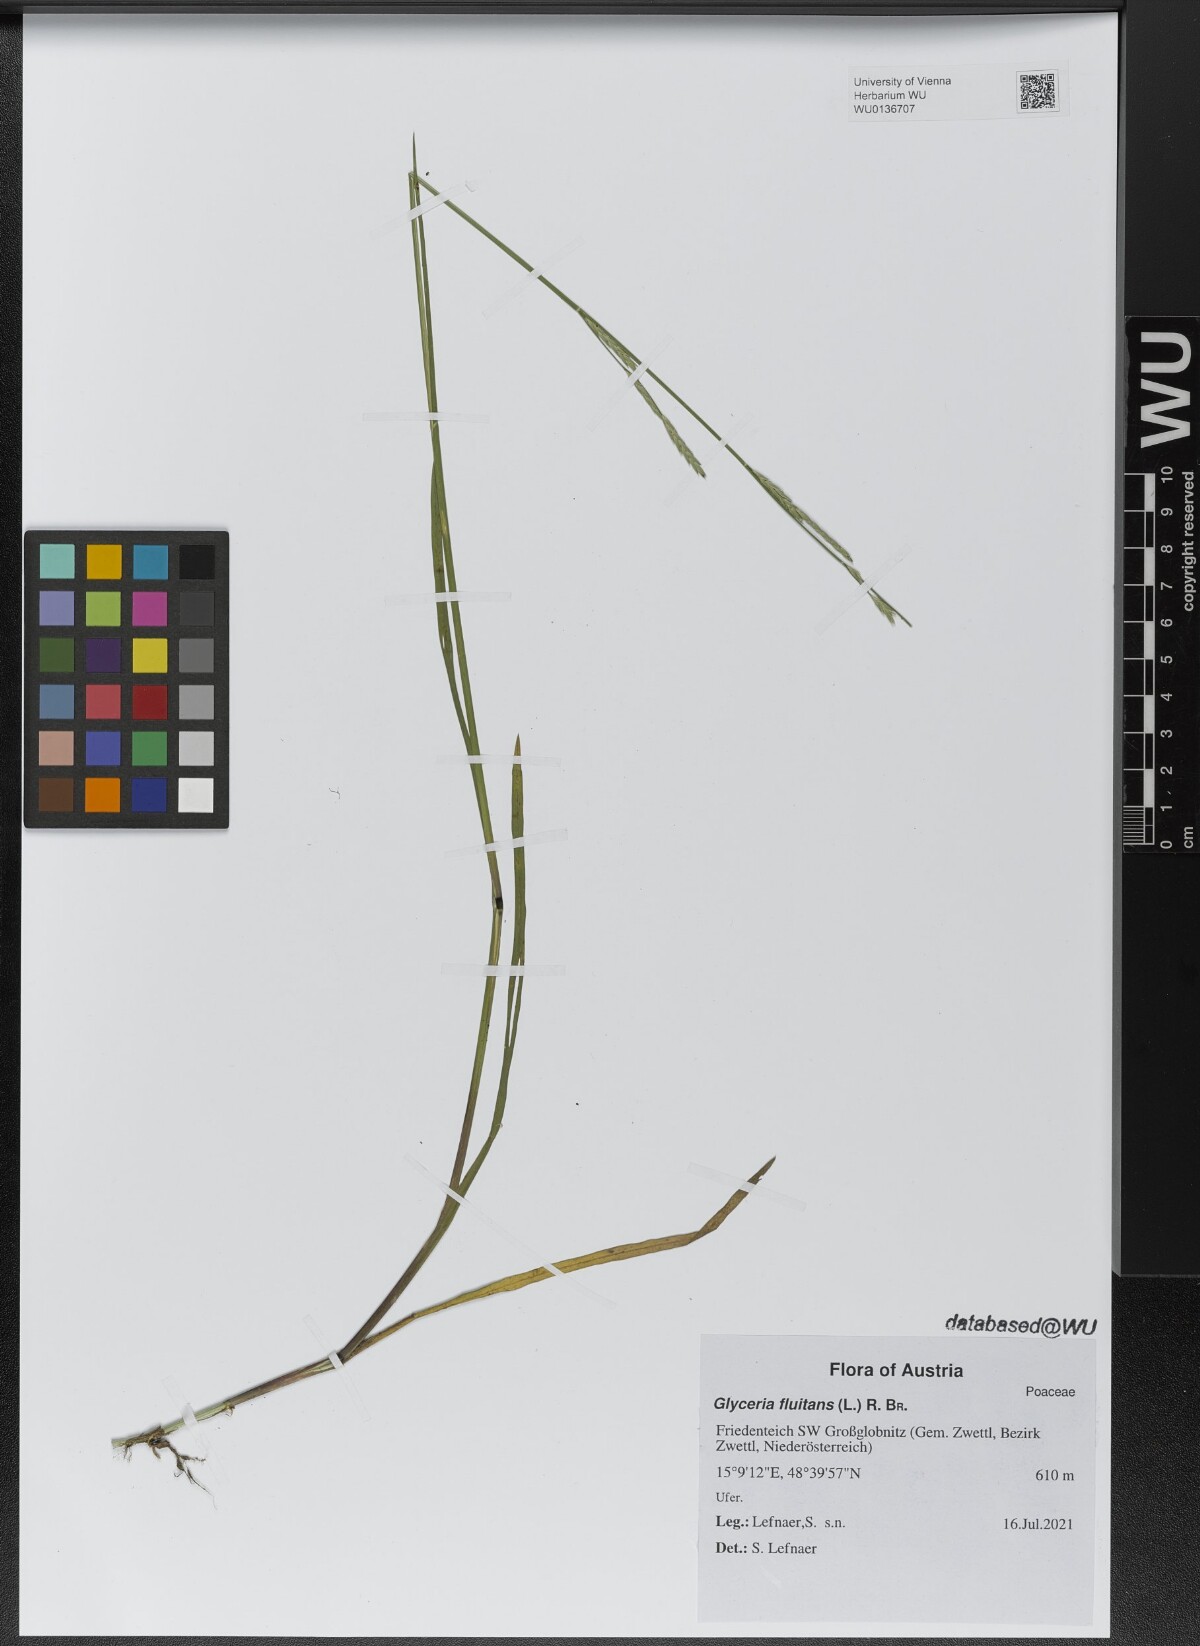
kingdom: Plantae
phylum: Tracheophyta
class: Liliopsida
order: Poales
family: Poaceae
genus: Glyceria
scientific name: Glyceria fluitans
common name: Floating sweet-grass
